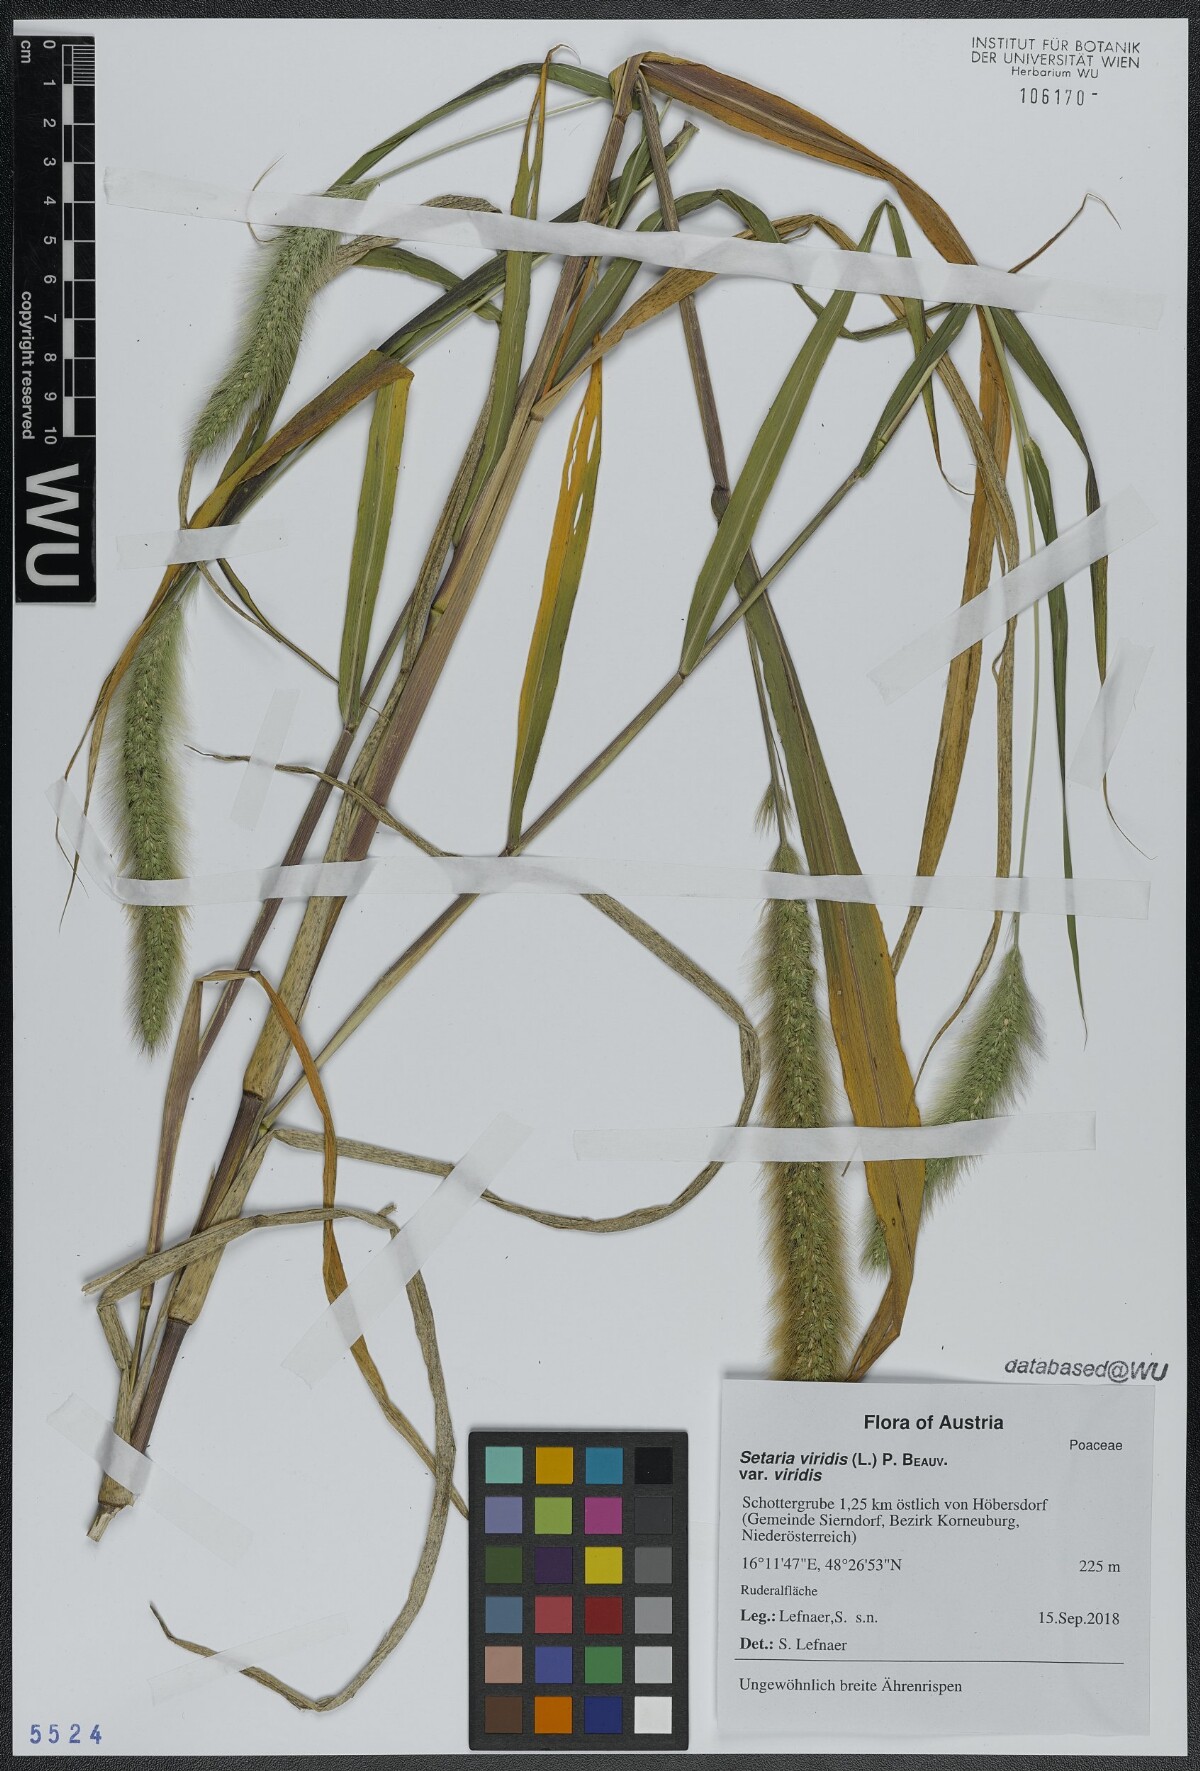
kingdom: Plantae
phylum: Tracheophyta
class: Liliopsida
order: Poales
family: Poaceae
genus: Setaria
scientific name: Setaria viridis
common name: Green bristlegrass
